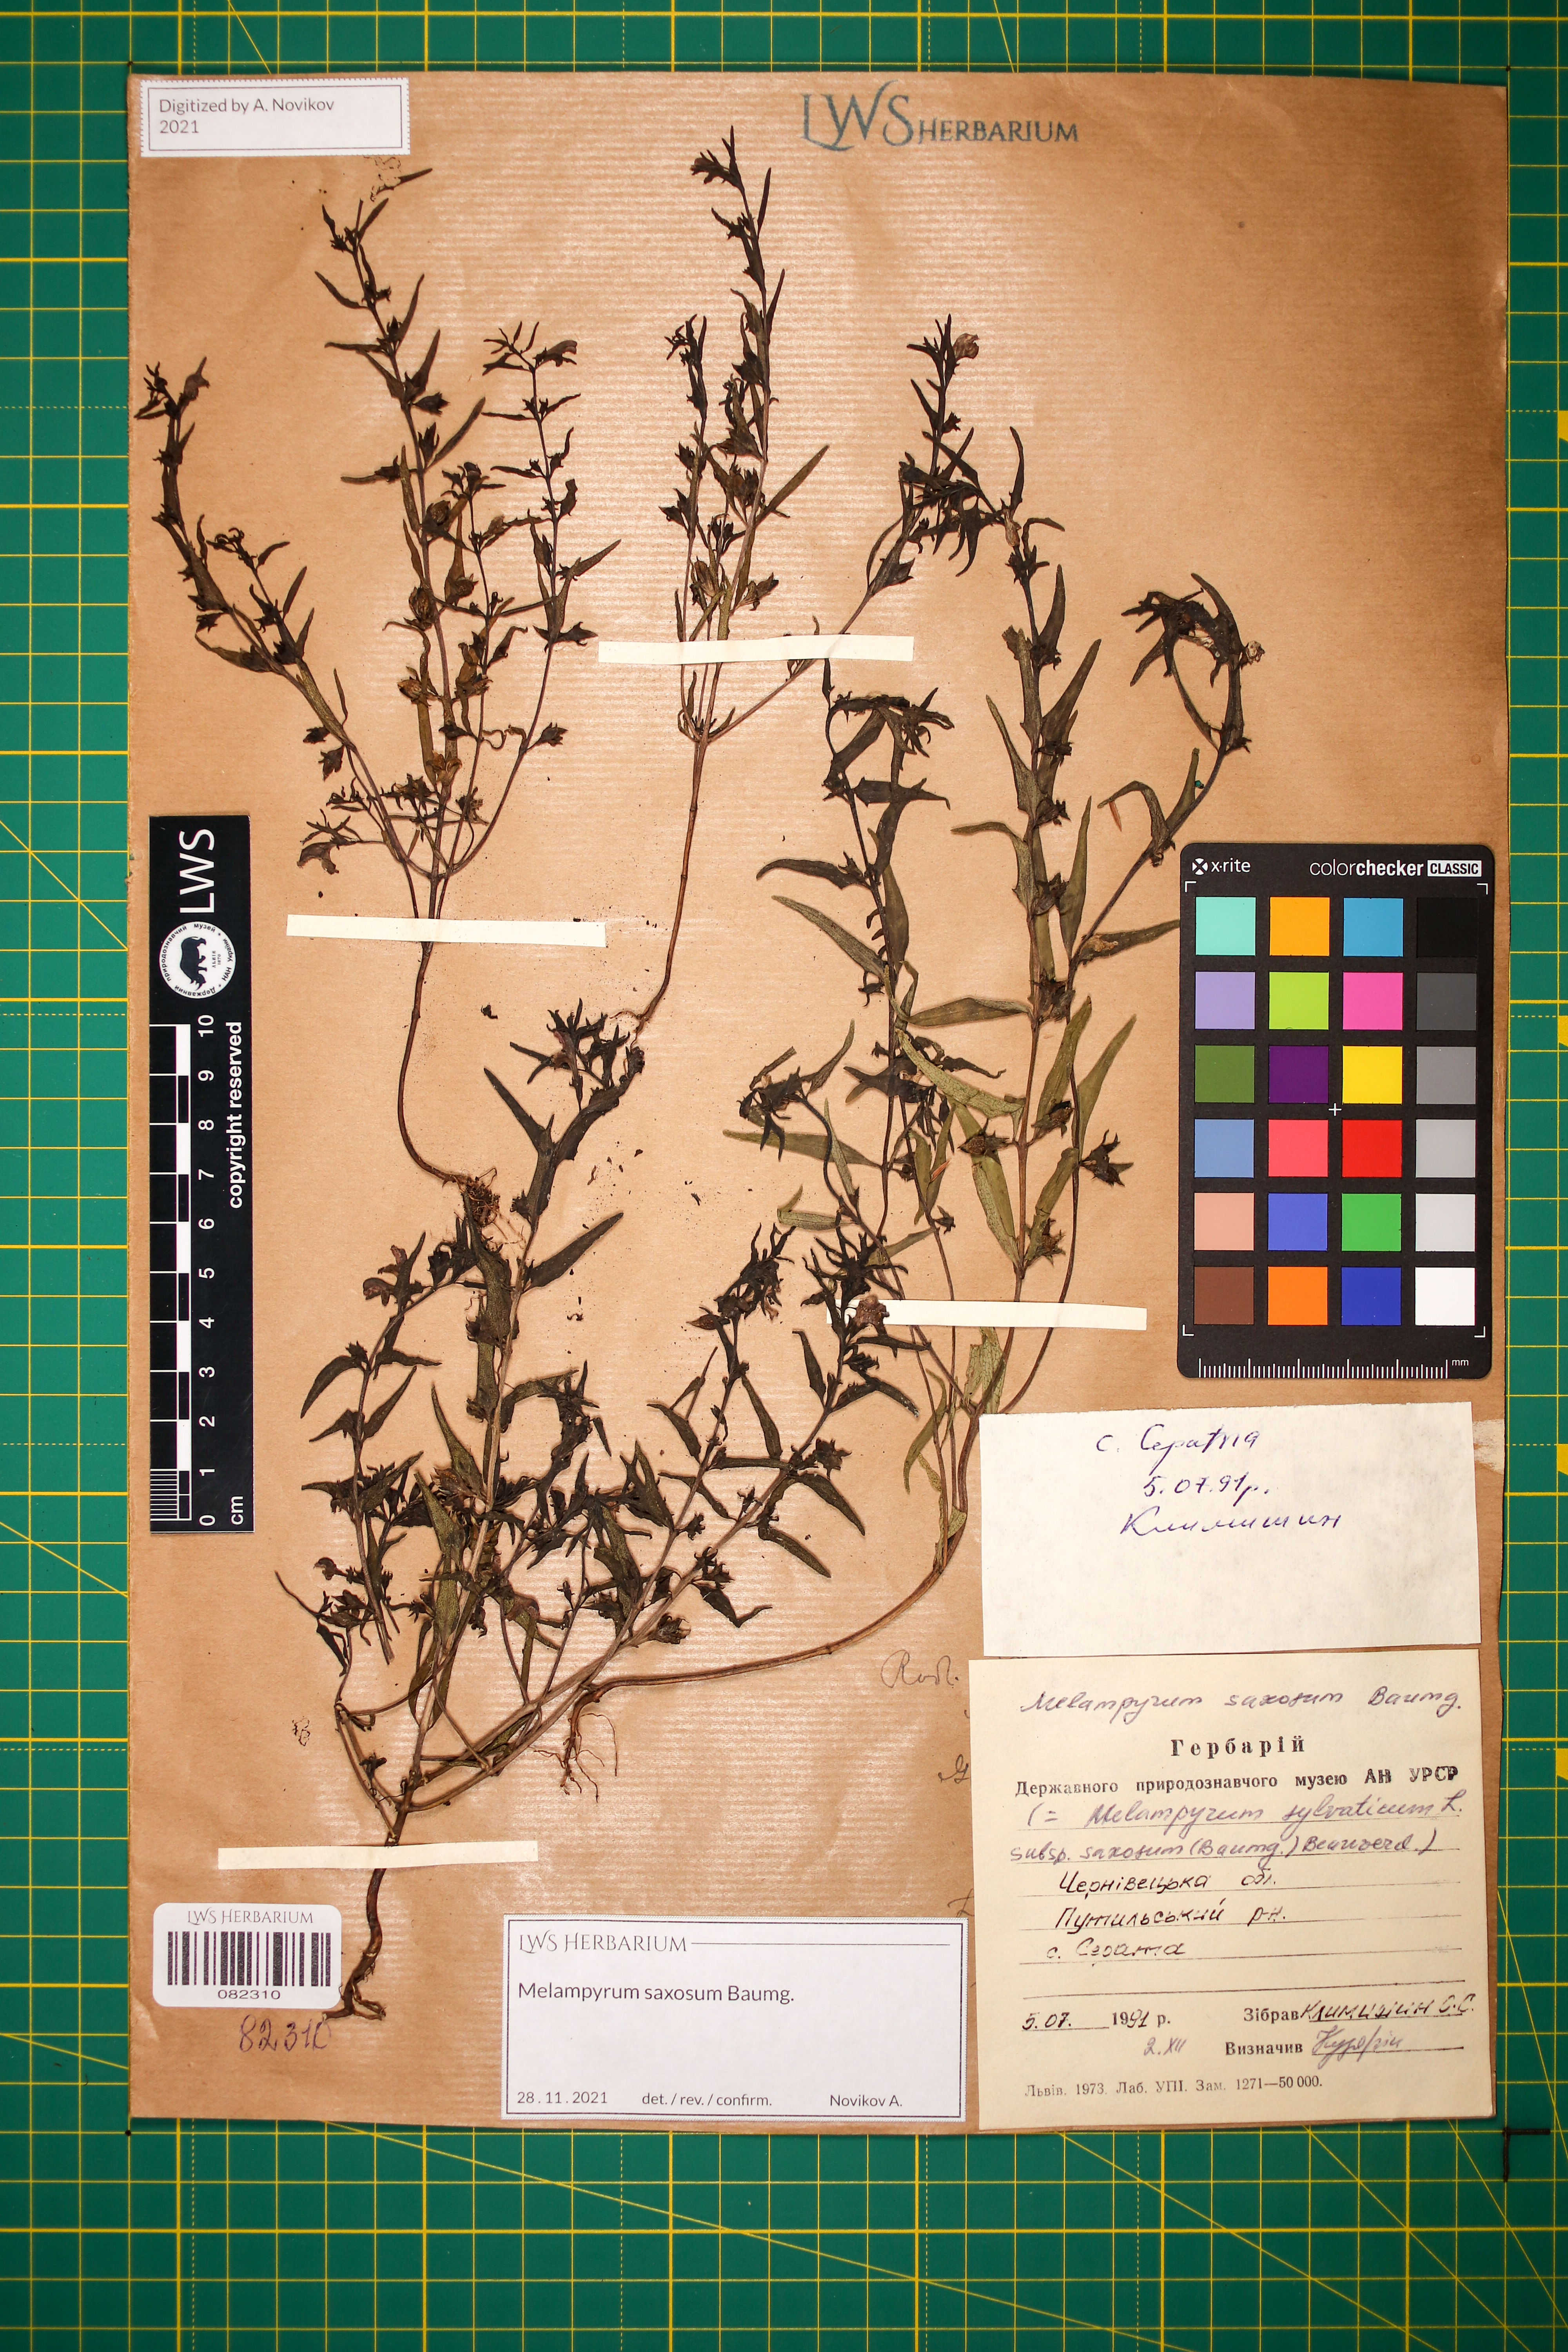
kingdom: Plantae
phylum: Tracheophyta
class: Magnoliopsida
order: Lamiales
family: Orobanchaceae
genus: Melampyrum
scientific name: Melampyrum saxosum
